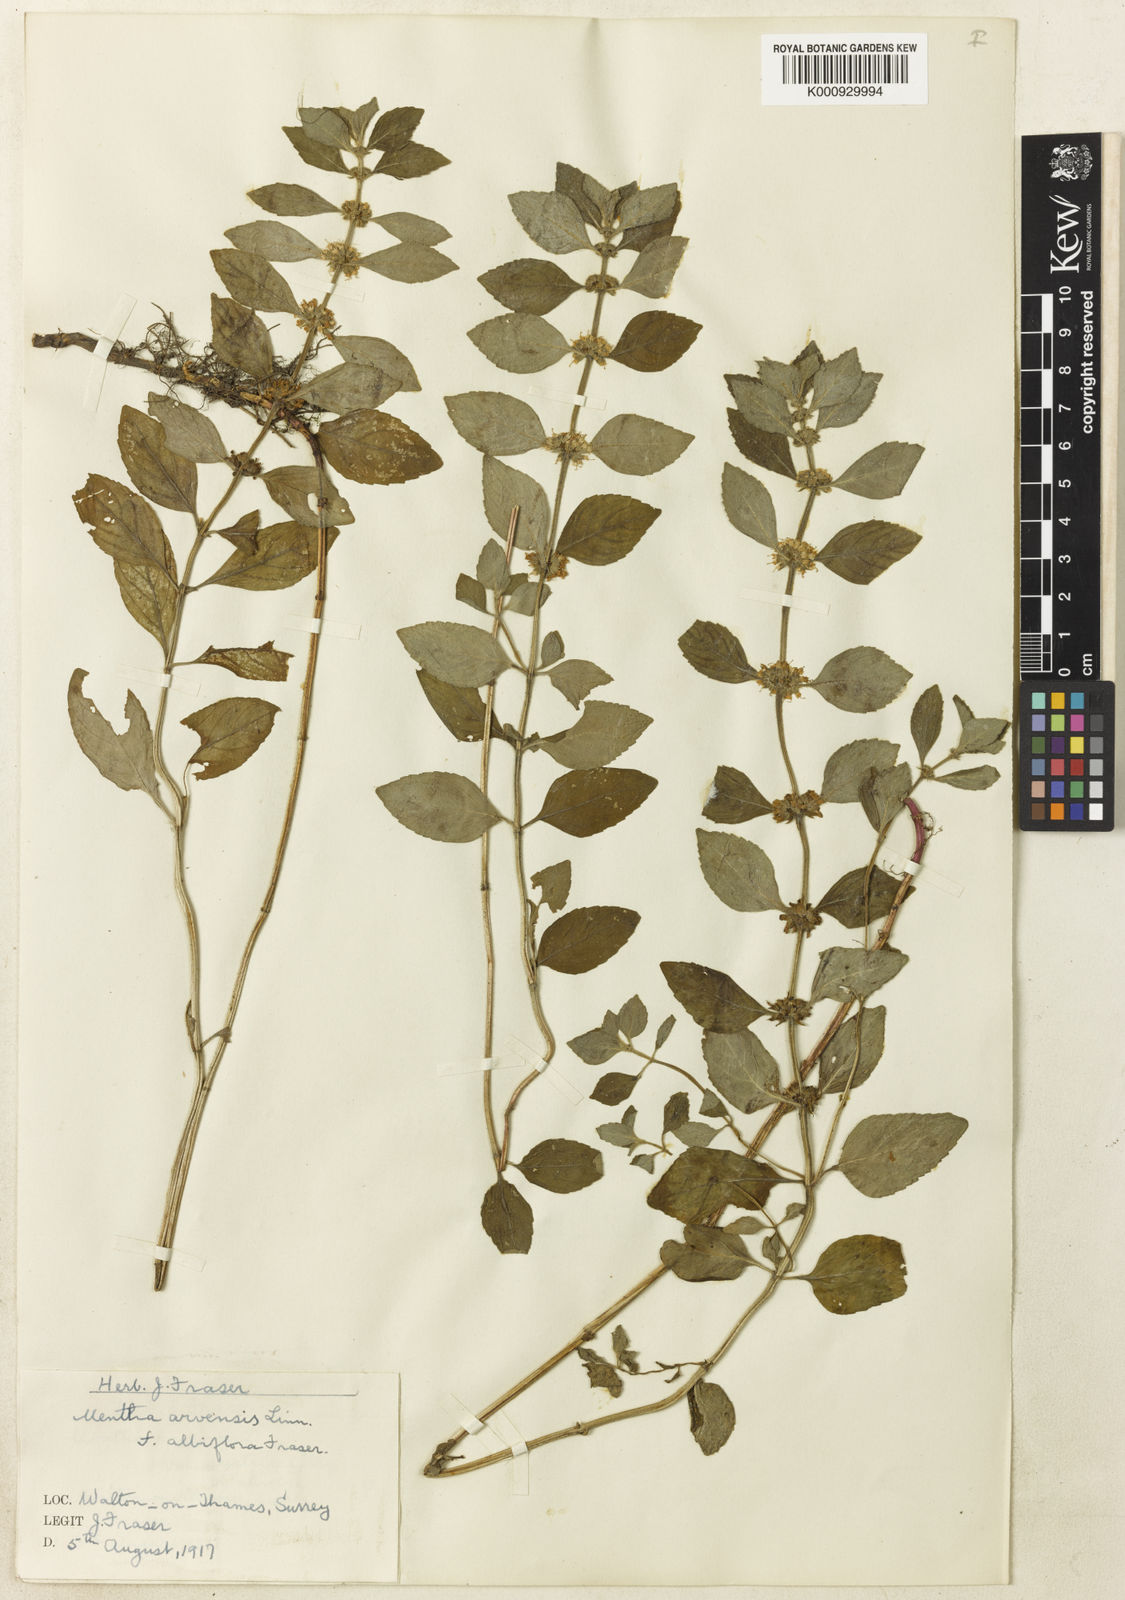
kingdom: Plantae
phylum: Tracheophyta
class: Magnoliopsida
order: Lamiales
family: Lamiaceae
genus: Mentha
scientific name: Mentha arvensis
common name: Corn mint
